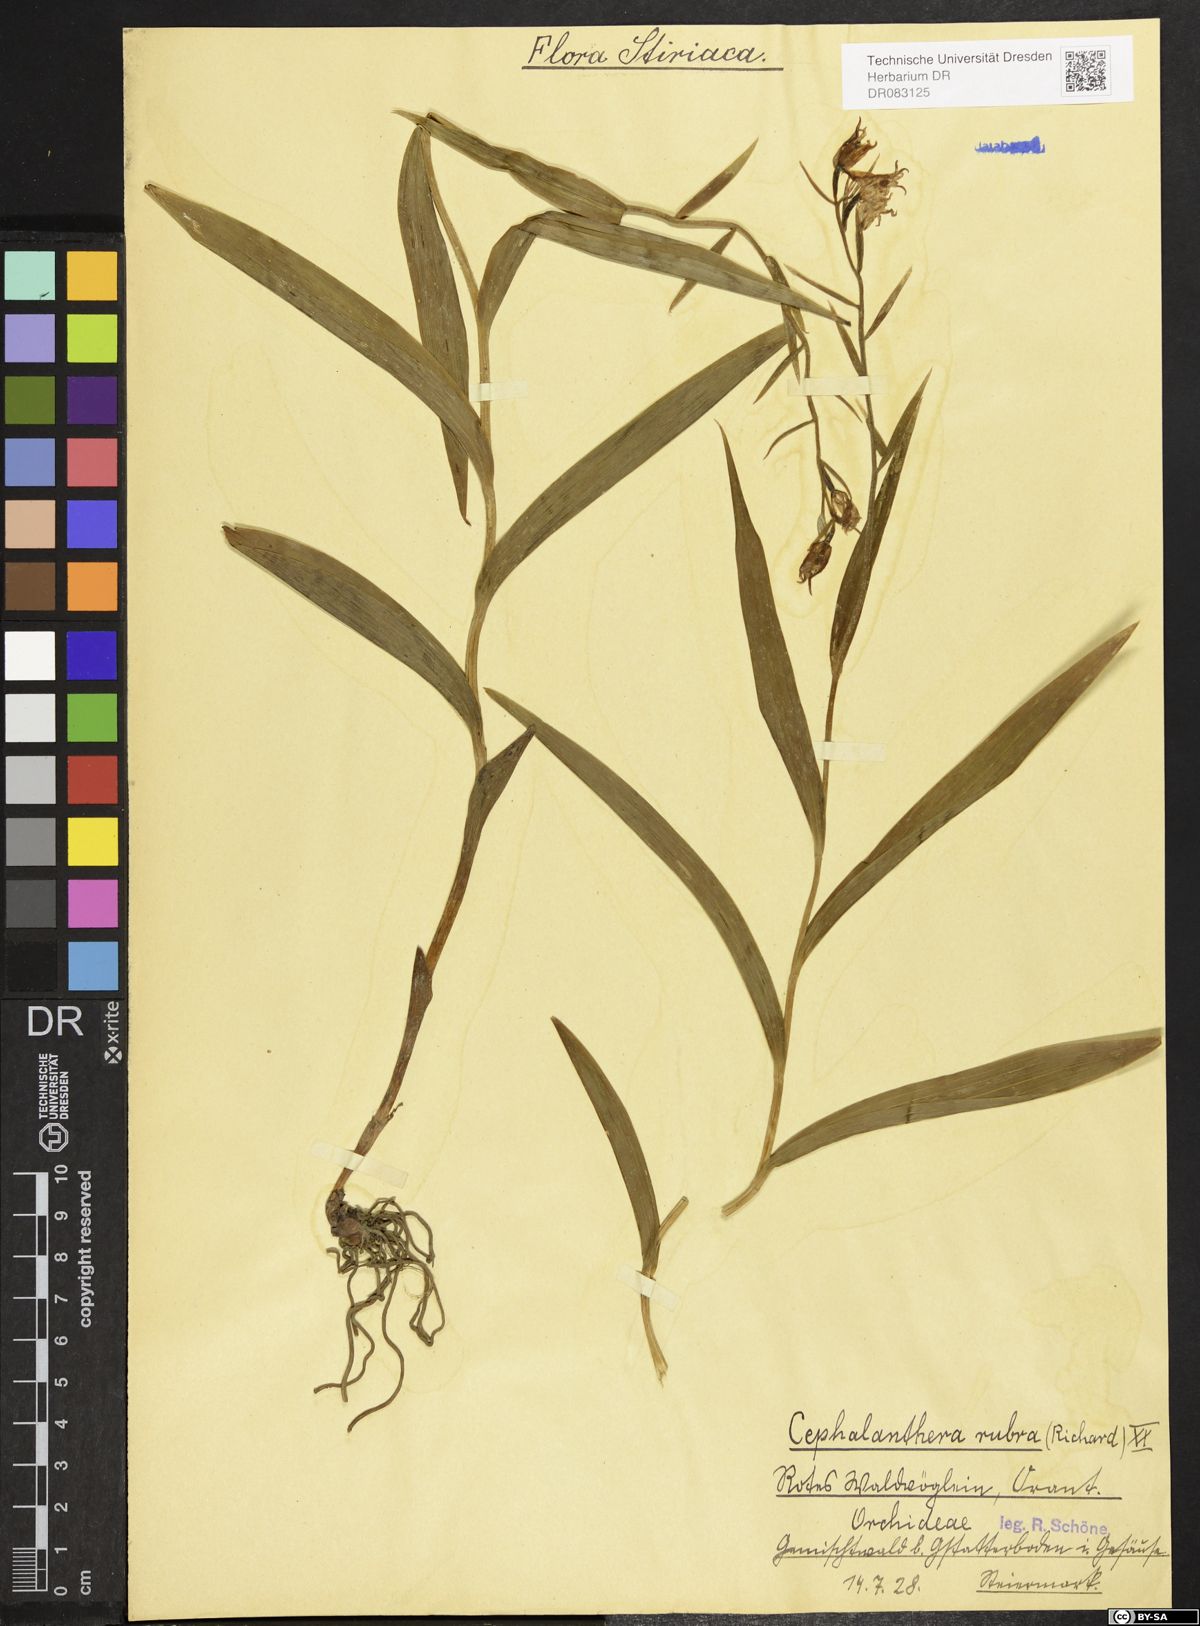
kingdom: Plantae
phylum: Tracheophyta
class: Liliopsida
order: Asparagales
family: Orchidaceae
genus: Cephalanthera
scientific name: Cephalanthera rubra
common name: Red helleborine
